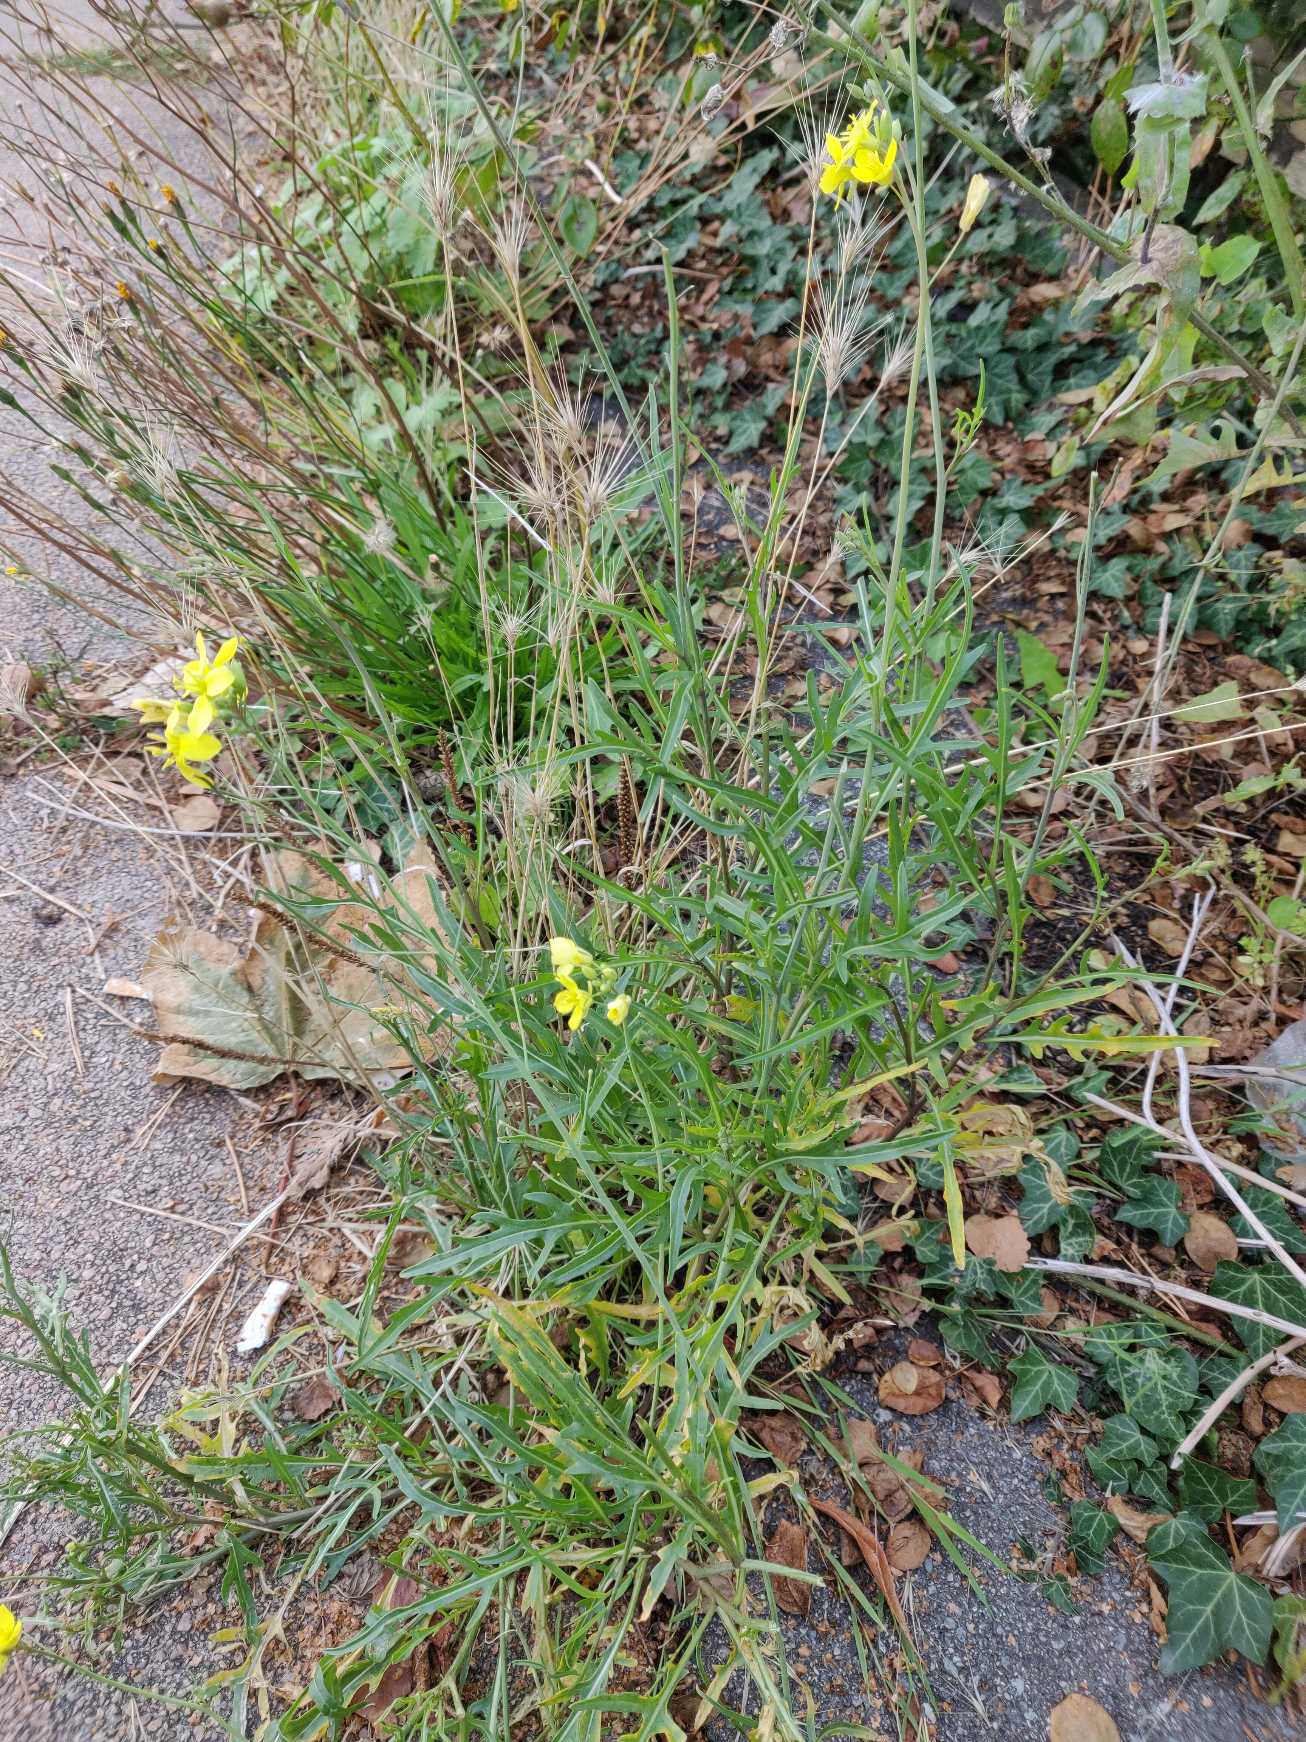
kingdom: Plantae
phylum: Tracheophyta
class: Magnoliopsida
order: Brassicales
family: Brassicaceae
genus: Diplotaxis
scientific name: Diplotaxis tenuifolia
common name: Sandsennep
